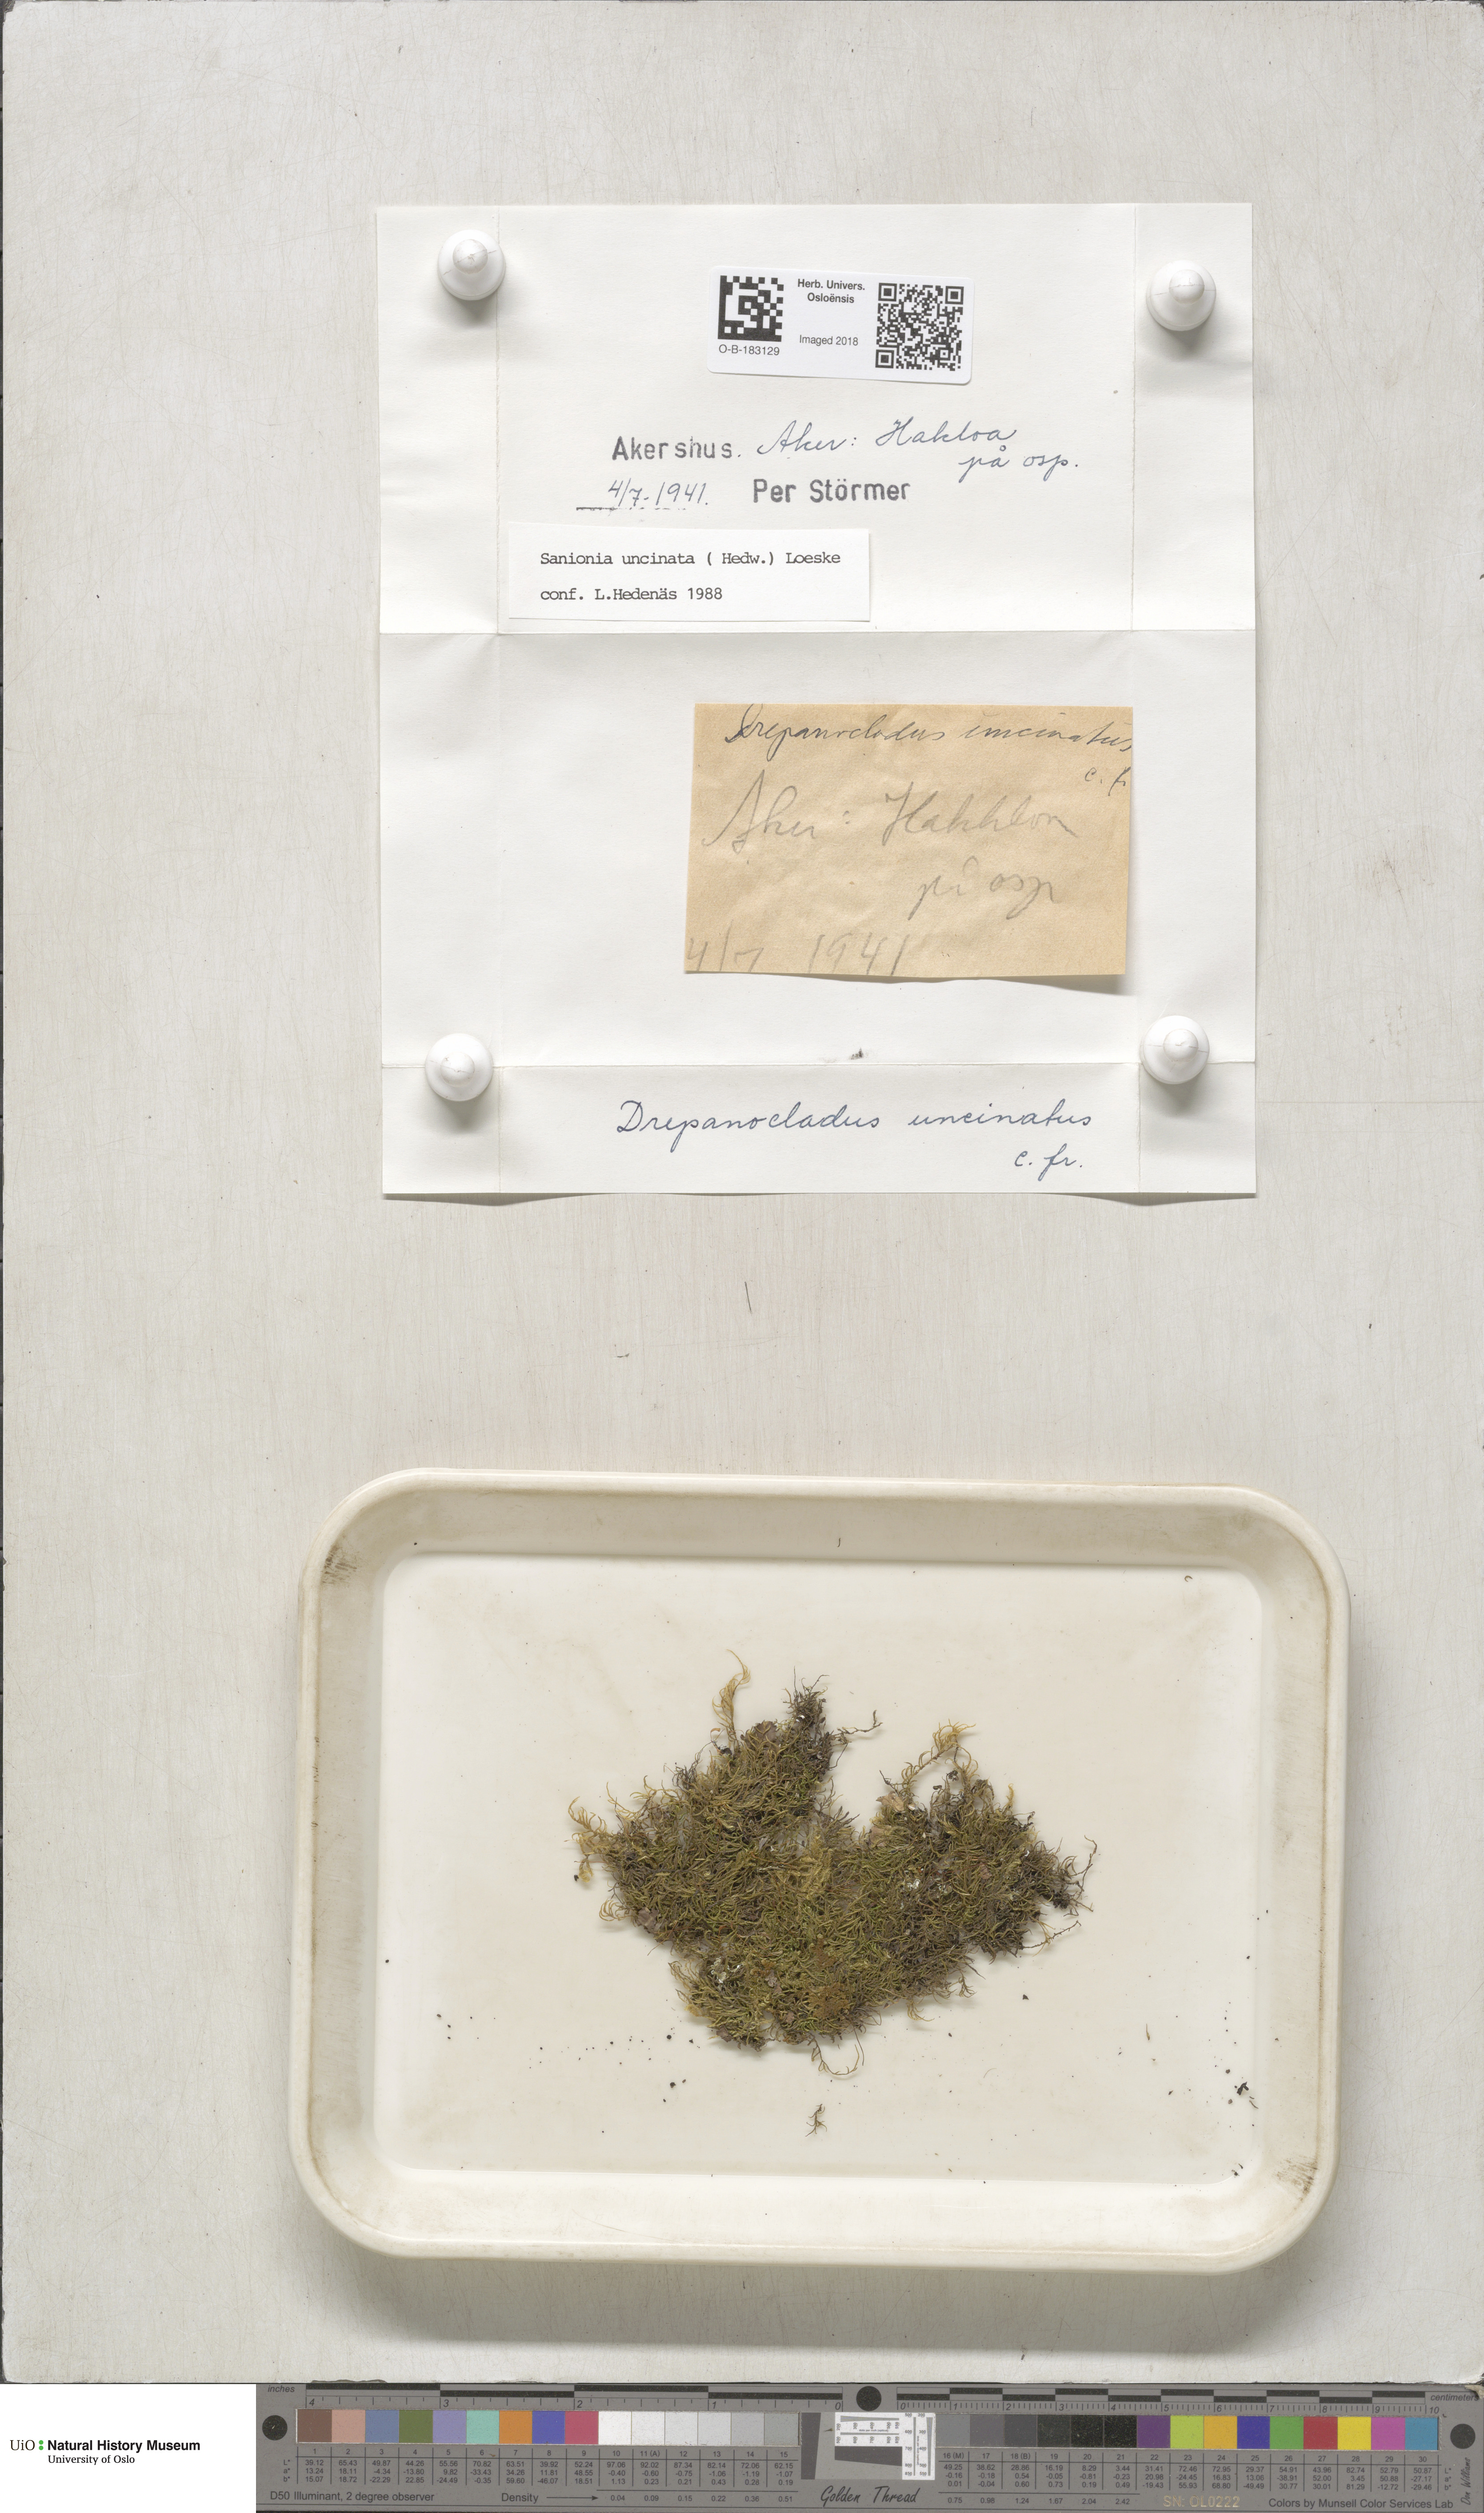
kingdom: Plantae
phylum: Bryophyta
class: Bryopsida
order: Hypnales
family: Scorpidiaceae
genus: Sanionia
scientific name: Sanionia uncinata
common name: Sickle moss
